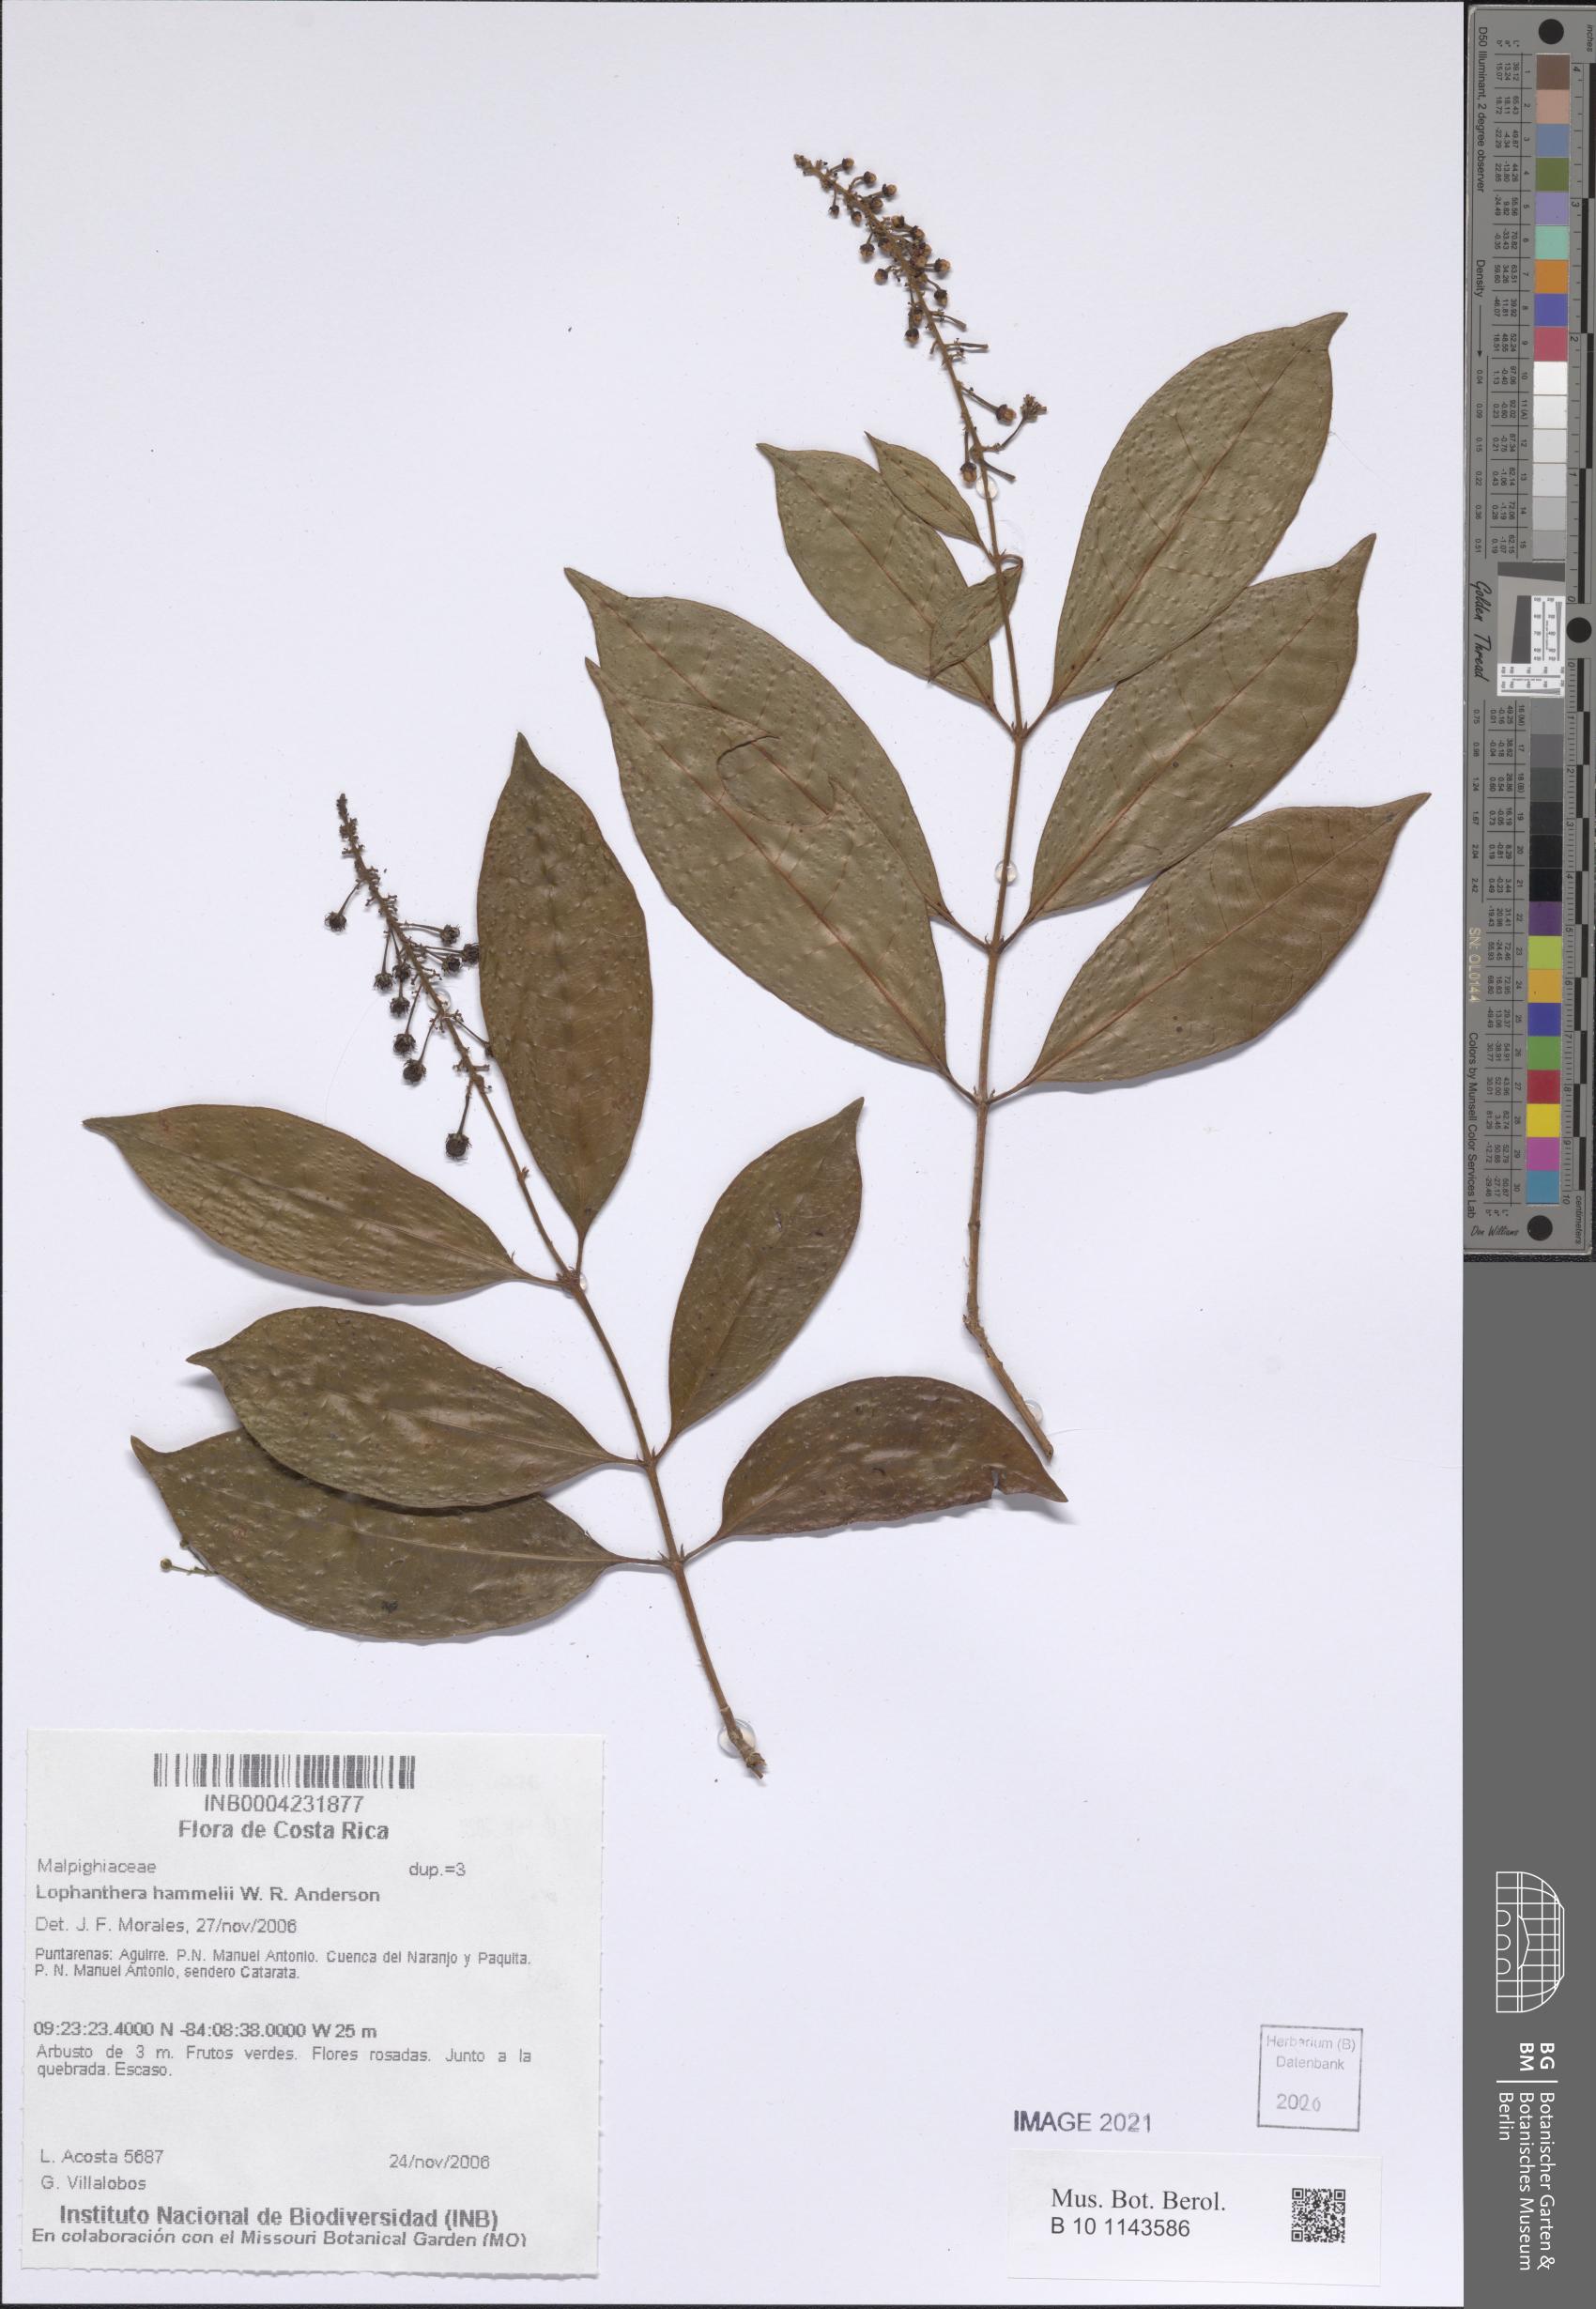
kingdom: Plantae
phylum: Tracheophyta
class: Magnoliopsida
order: Malpighiales
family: Malpighiaceae
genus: Andersoniodoxa
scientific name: Andersoniodoxa hammelii
